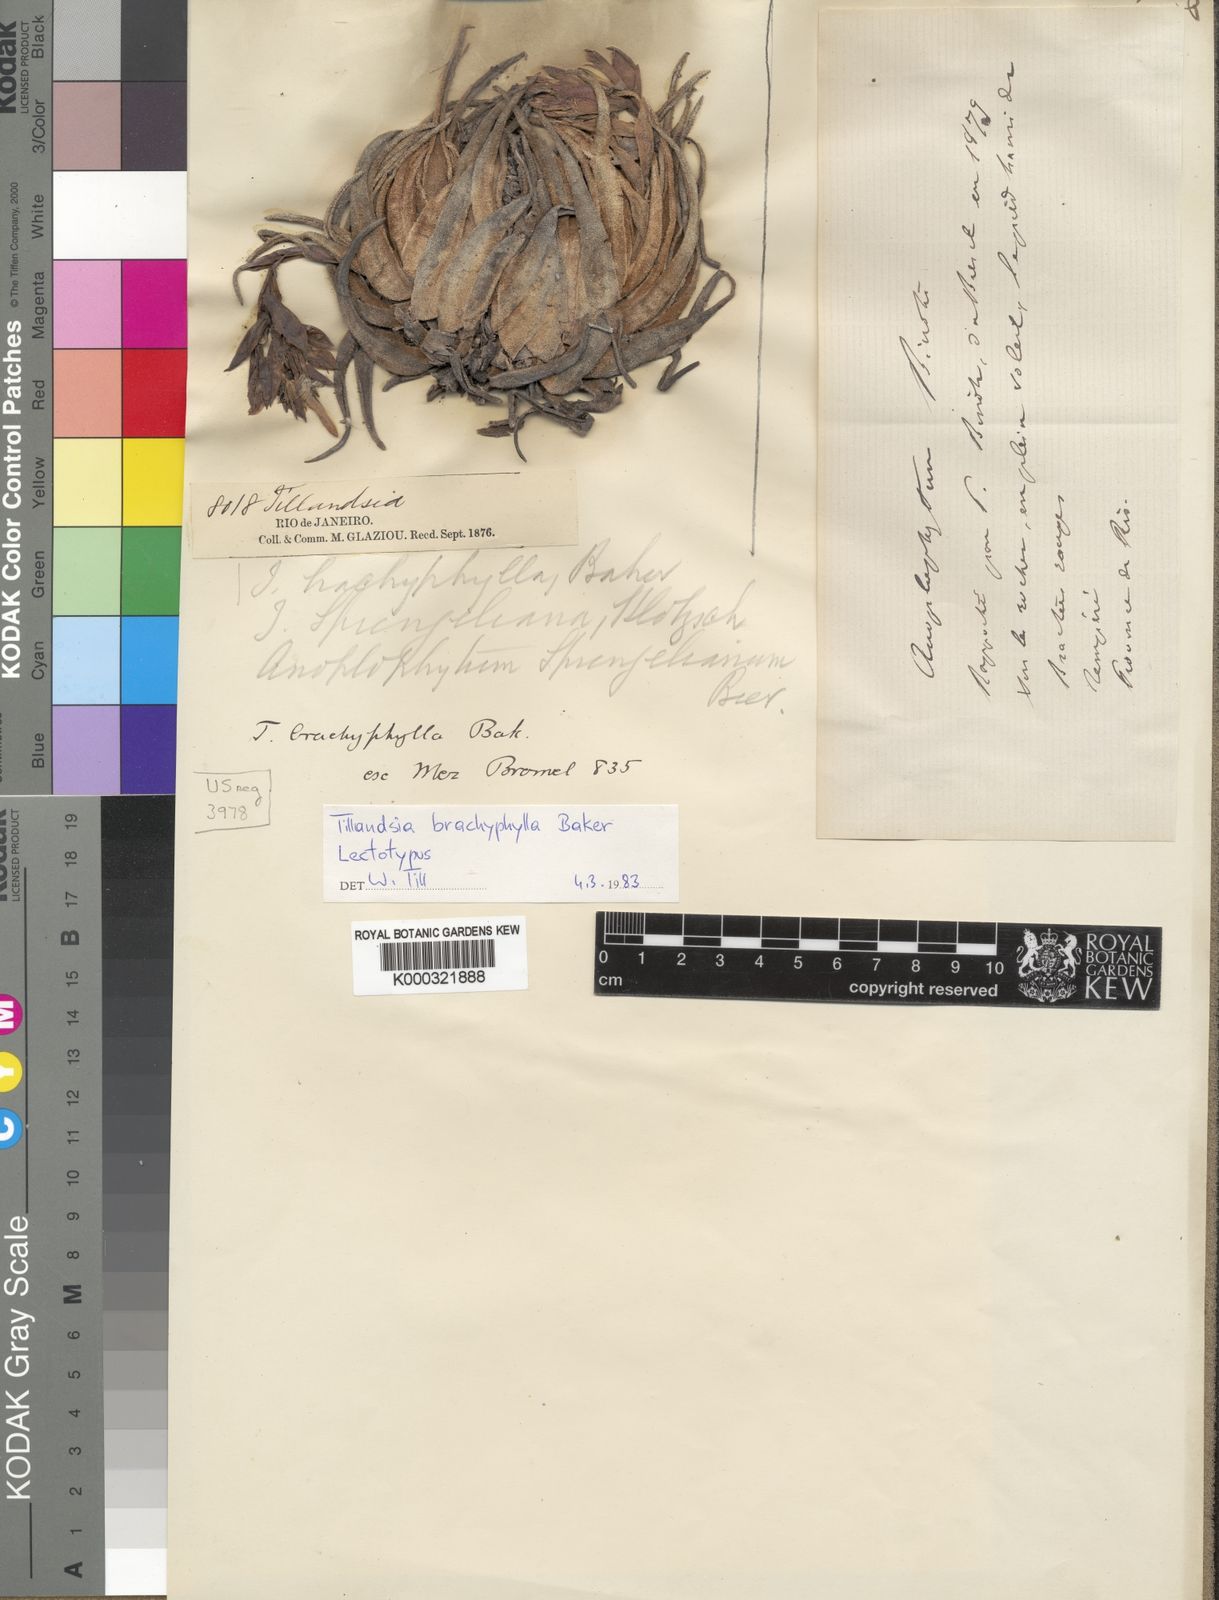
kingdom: Plantae
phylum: Tracheophyta
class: Liliopsida
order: Poales
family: Bromeliaceae
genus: Tillandsia
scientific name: Tillandsia brachyphylla
